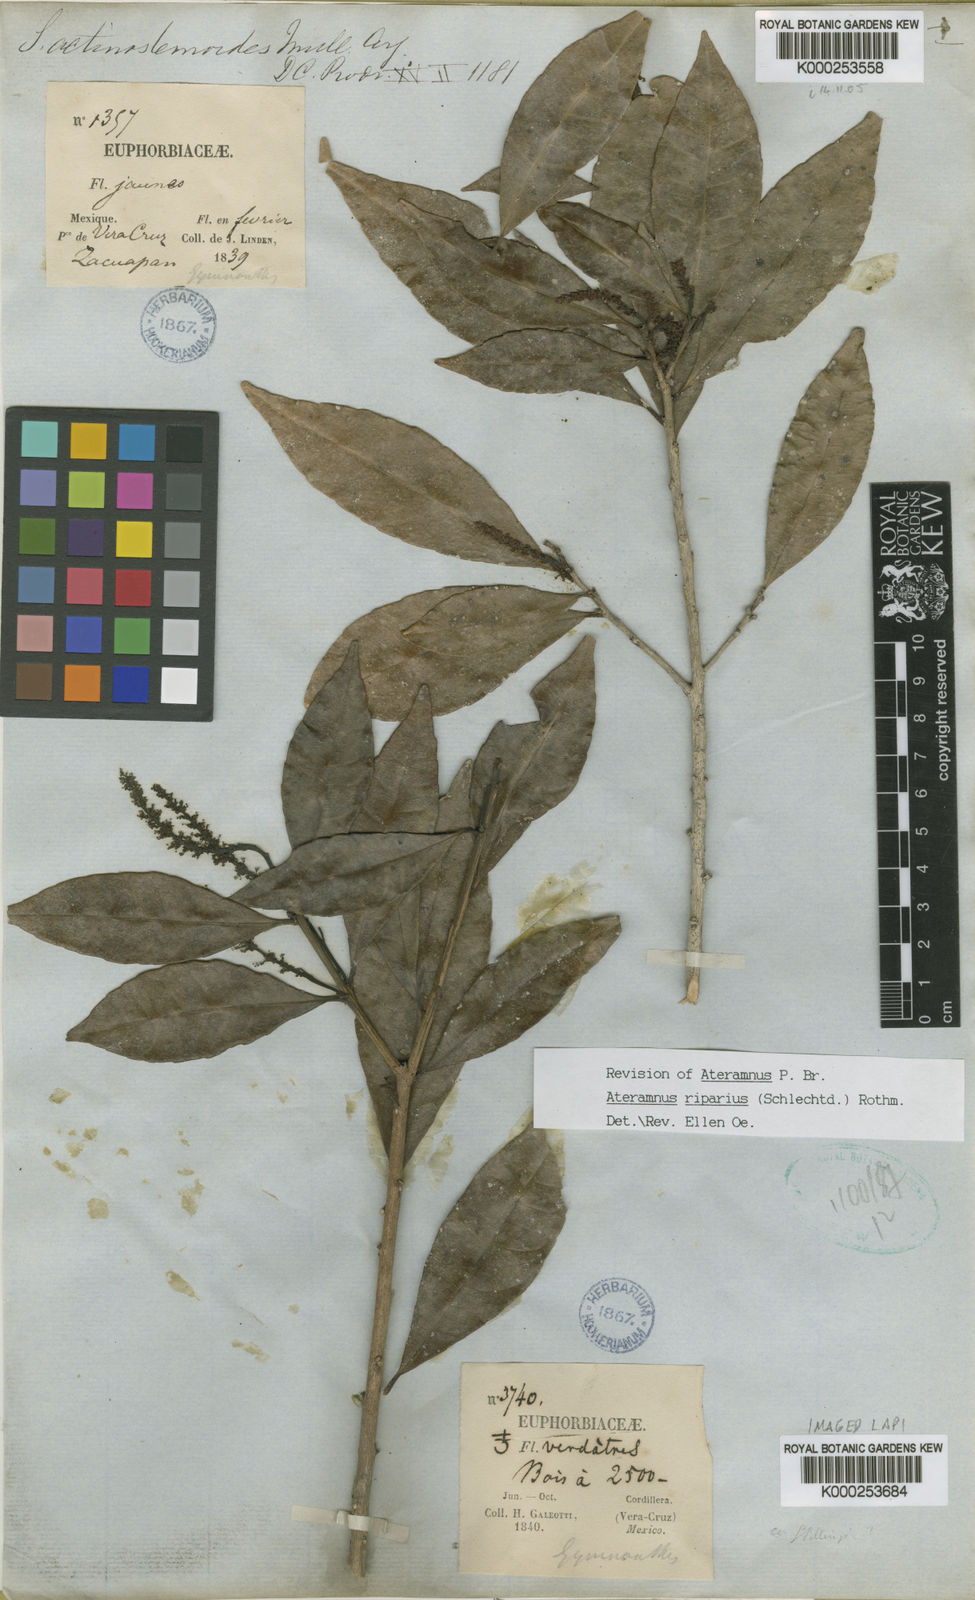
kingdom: Plantae
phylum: Tracheophyta
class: Magnoliopsida
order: Malpighiales
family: Euphorbiaceae
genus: Gymnanthes
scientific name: Gymnanthes
